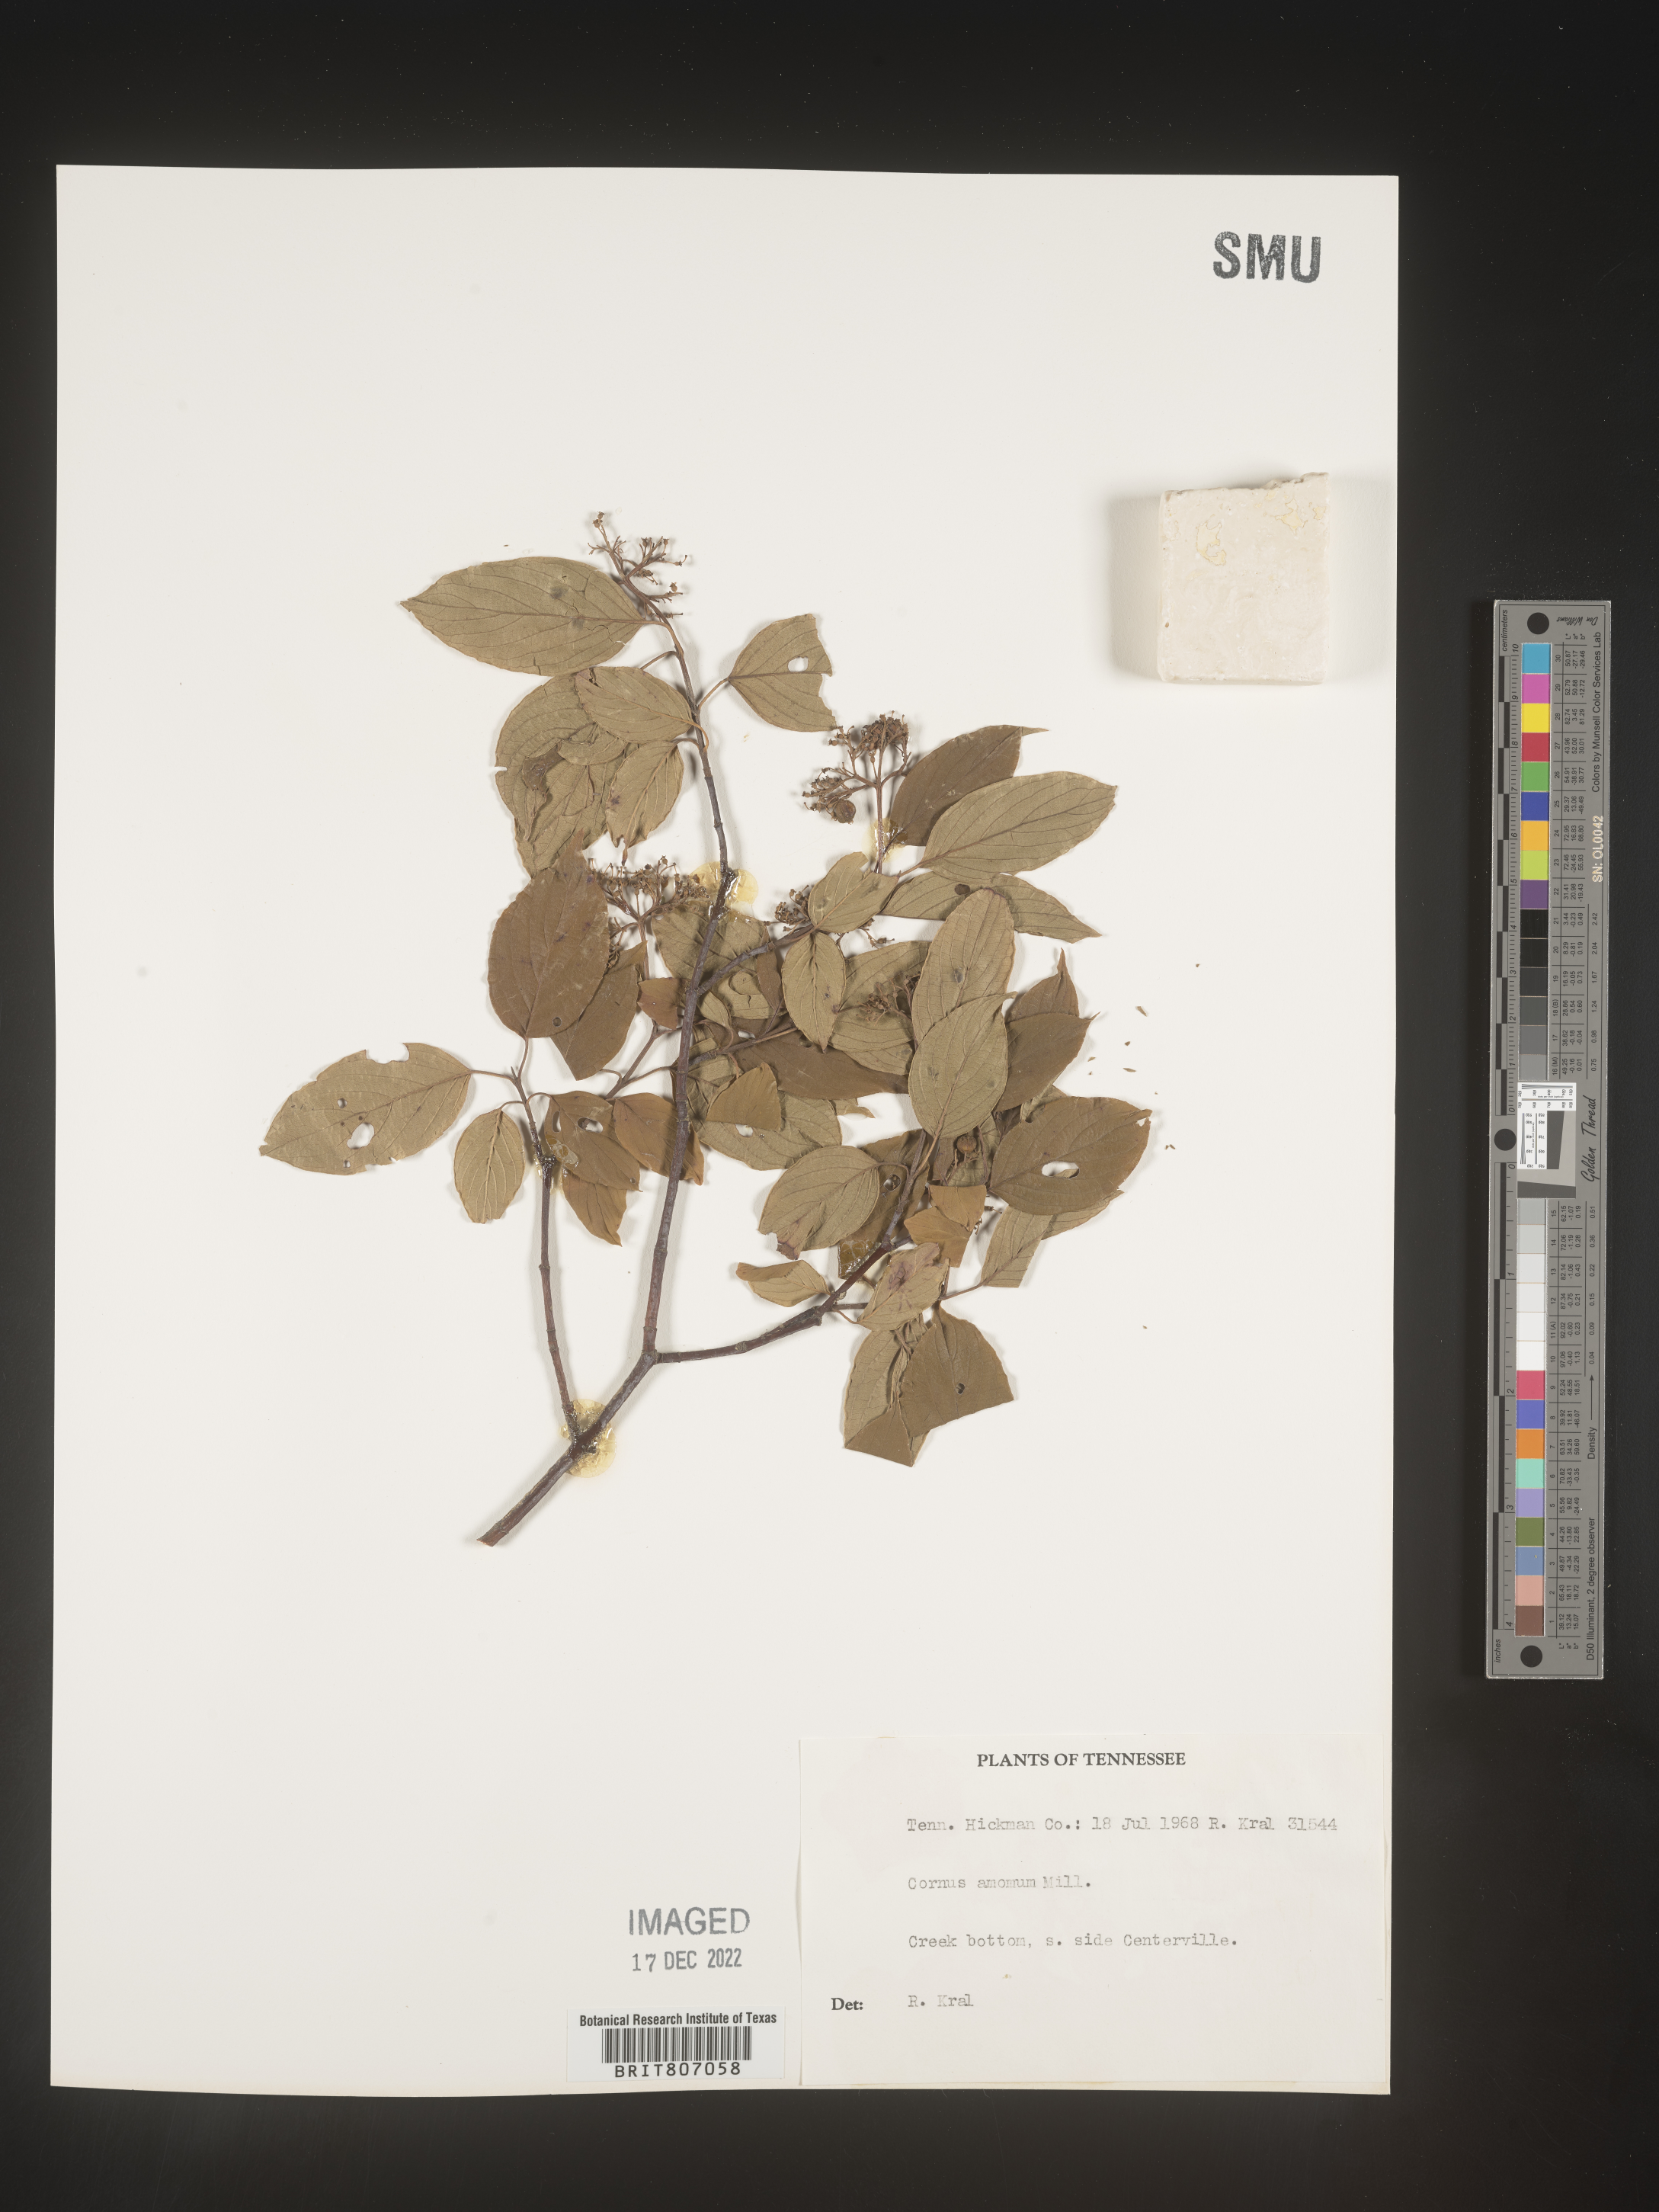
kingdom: Plantae
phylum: Tracheophyta
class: Magnoliopsida
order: Cornales
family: Cornaceae
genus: Cornus
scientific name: Cornus amomum
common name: Silky dogwood
